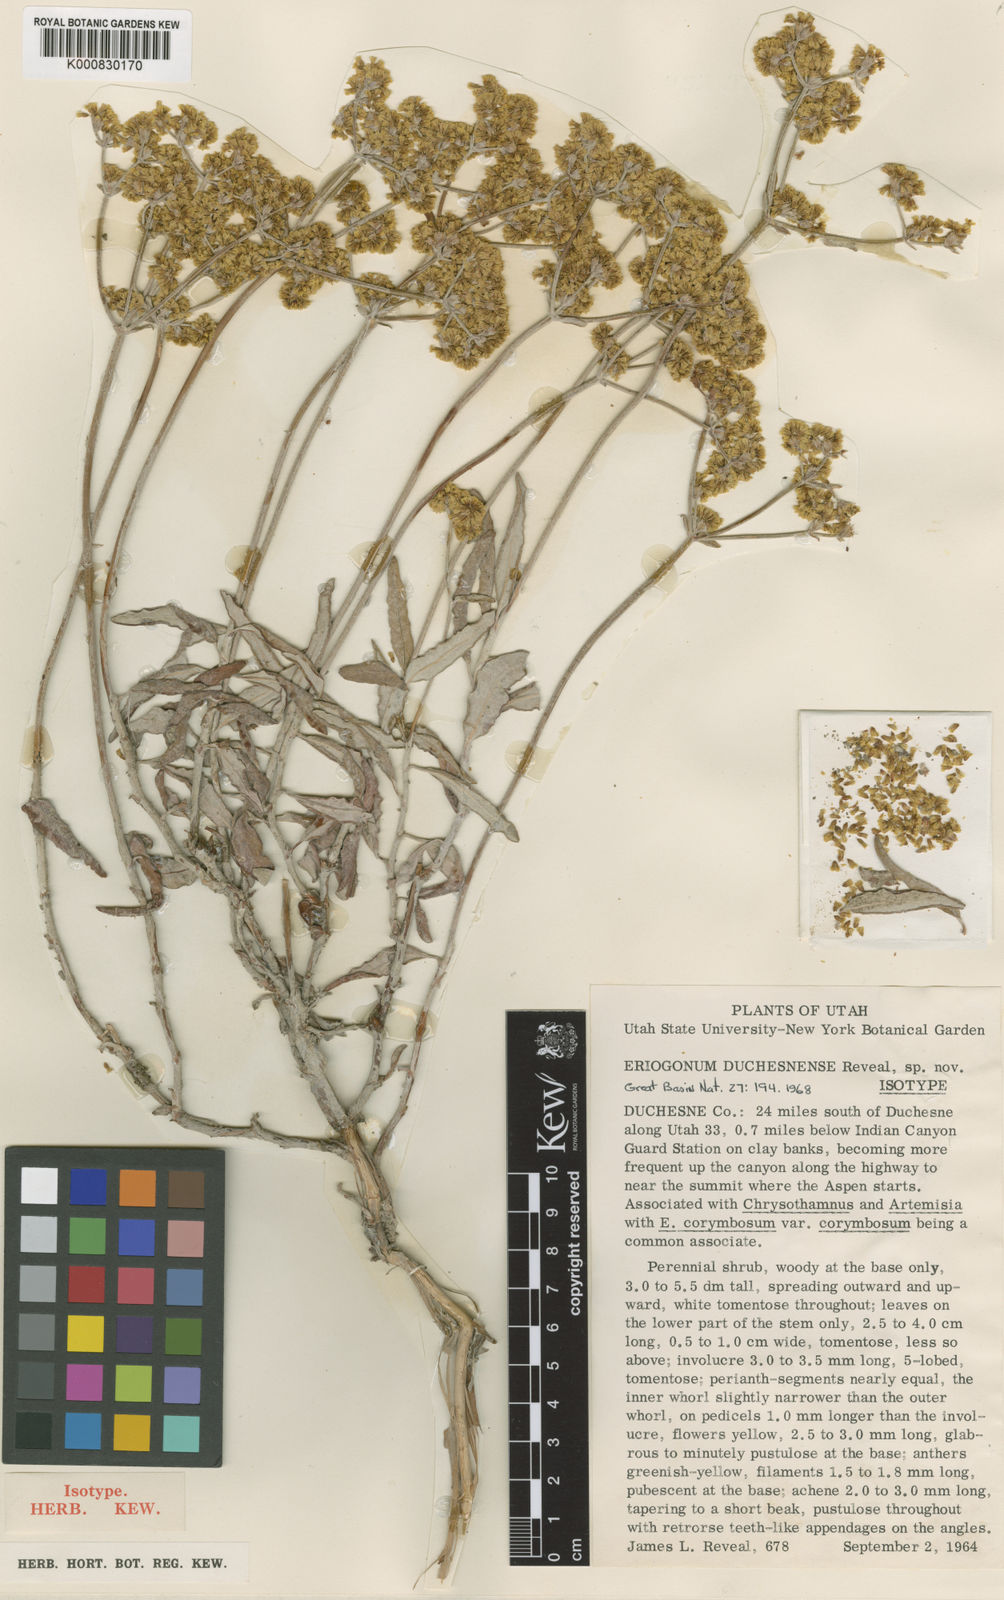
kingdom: Plantae
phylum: Tracheophyta
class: Magnoliopsida
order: Caryophyllales
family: Polygonaceae
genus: Eriogonum
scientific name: Eriogonum duchesnense
